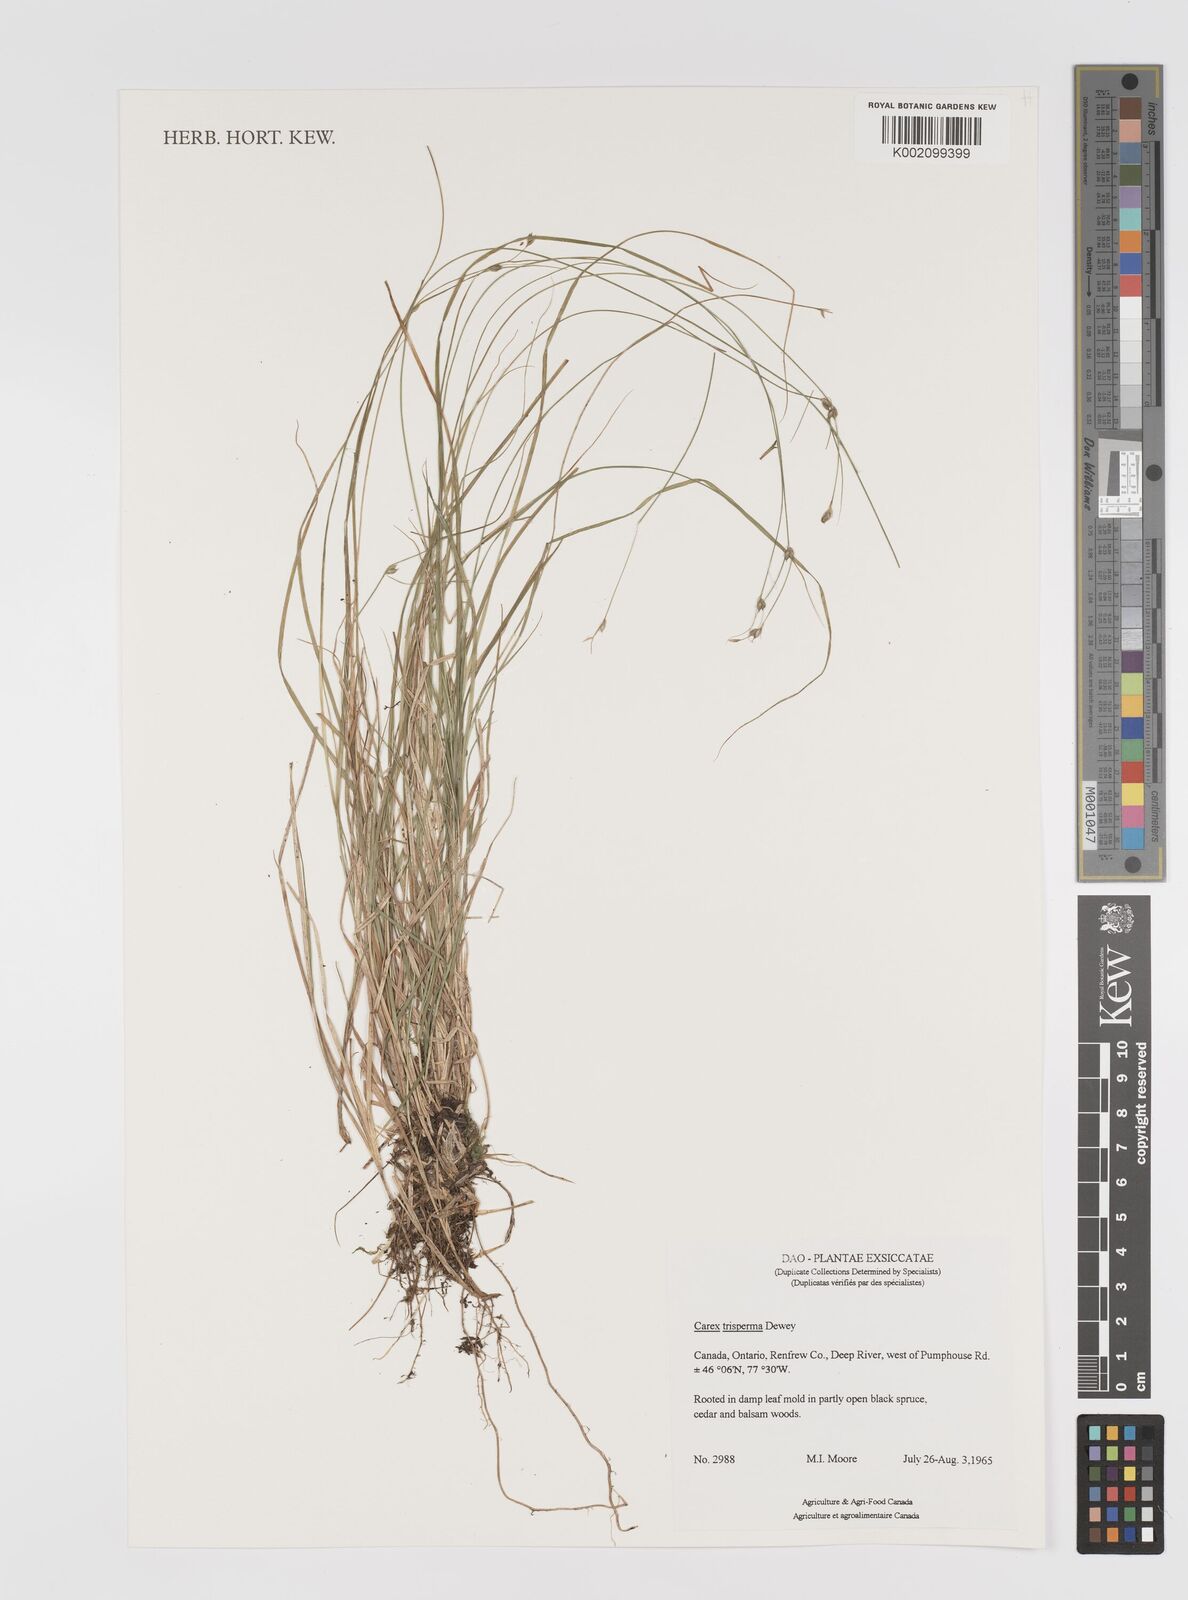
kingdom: Plantae
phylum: Tracheophyta
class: Liliopsida
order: Poales
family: Cyperaceae
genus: Carex
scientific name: Carex trisperma
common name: Three-seeded sedge
